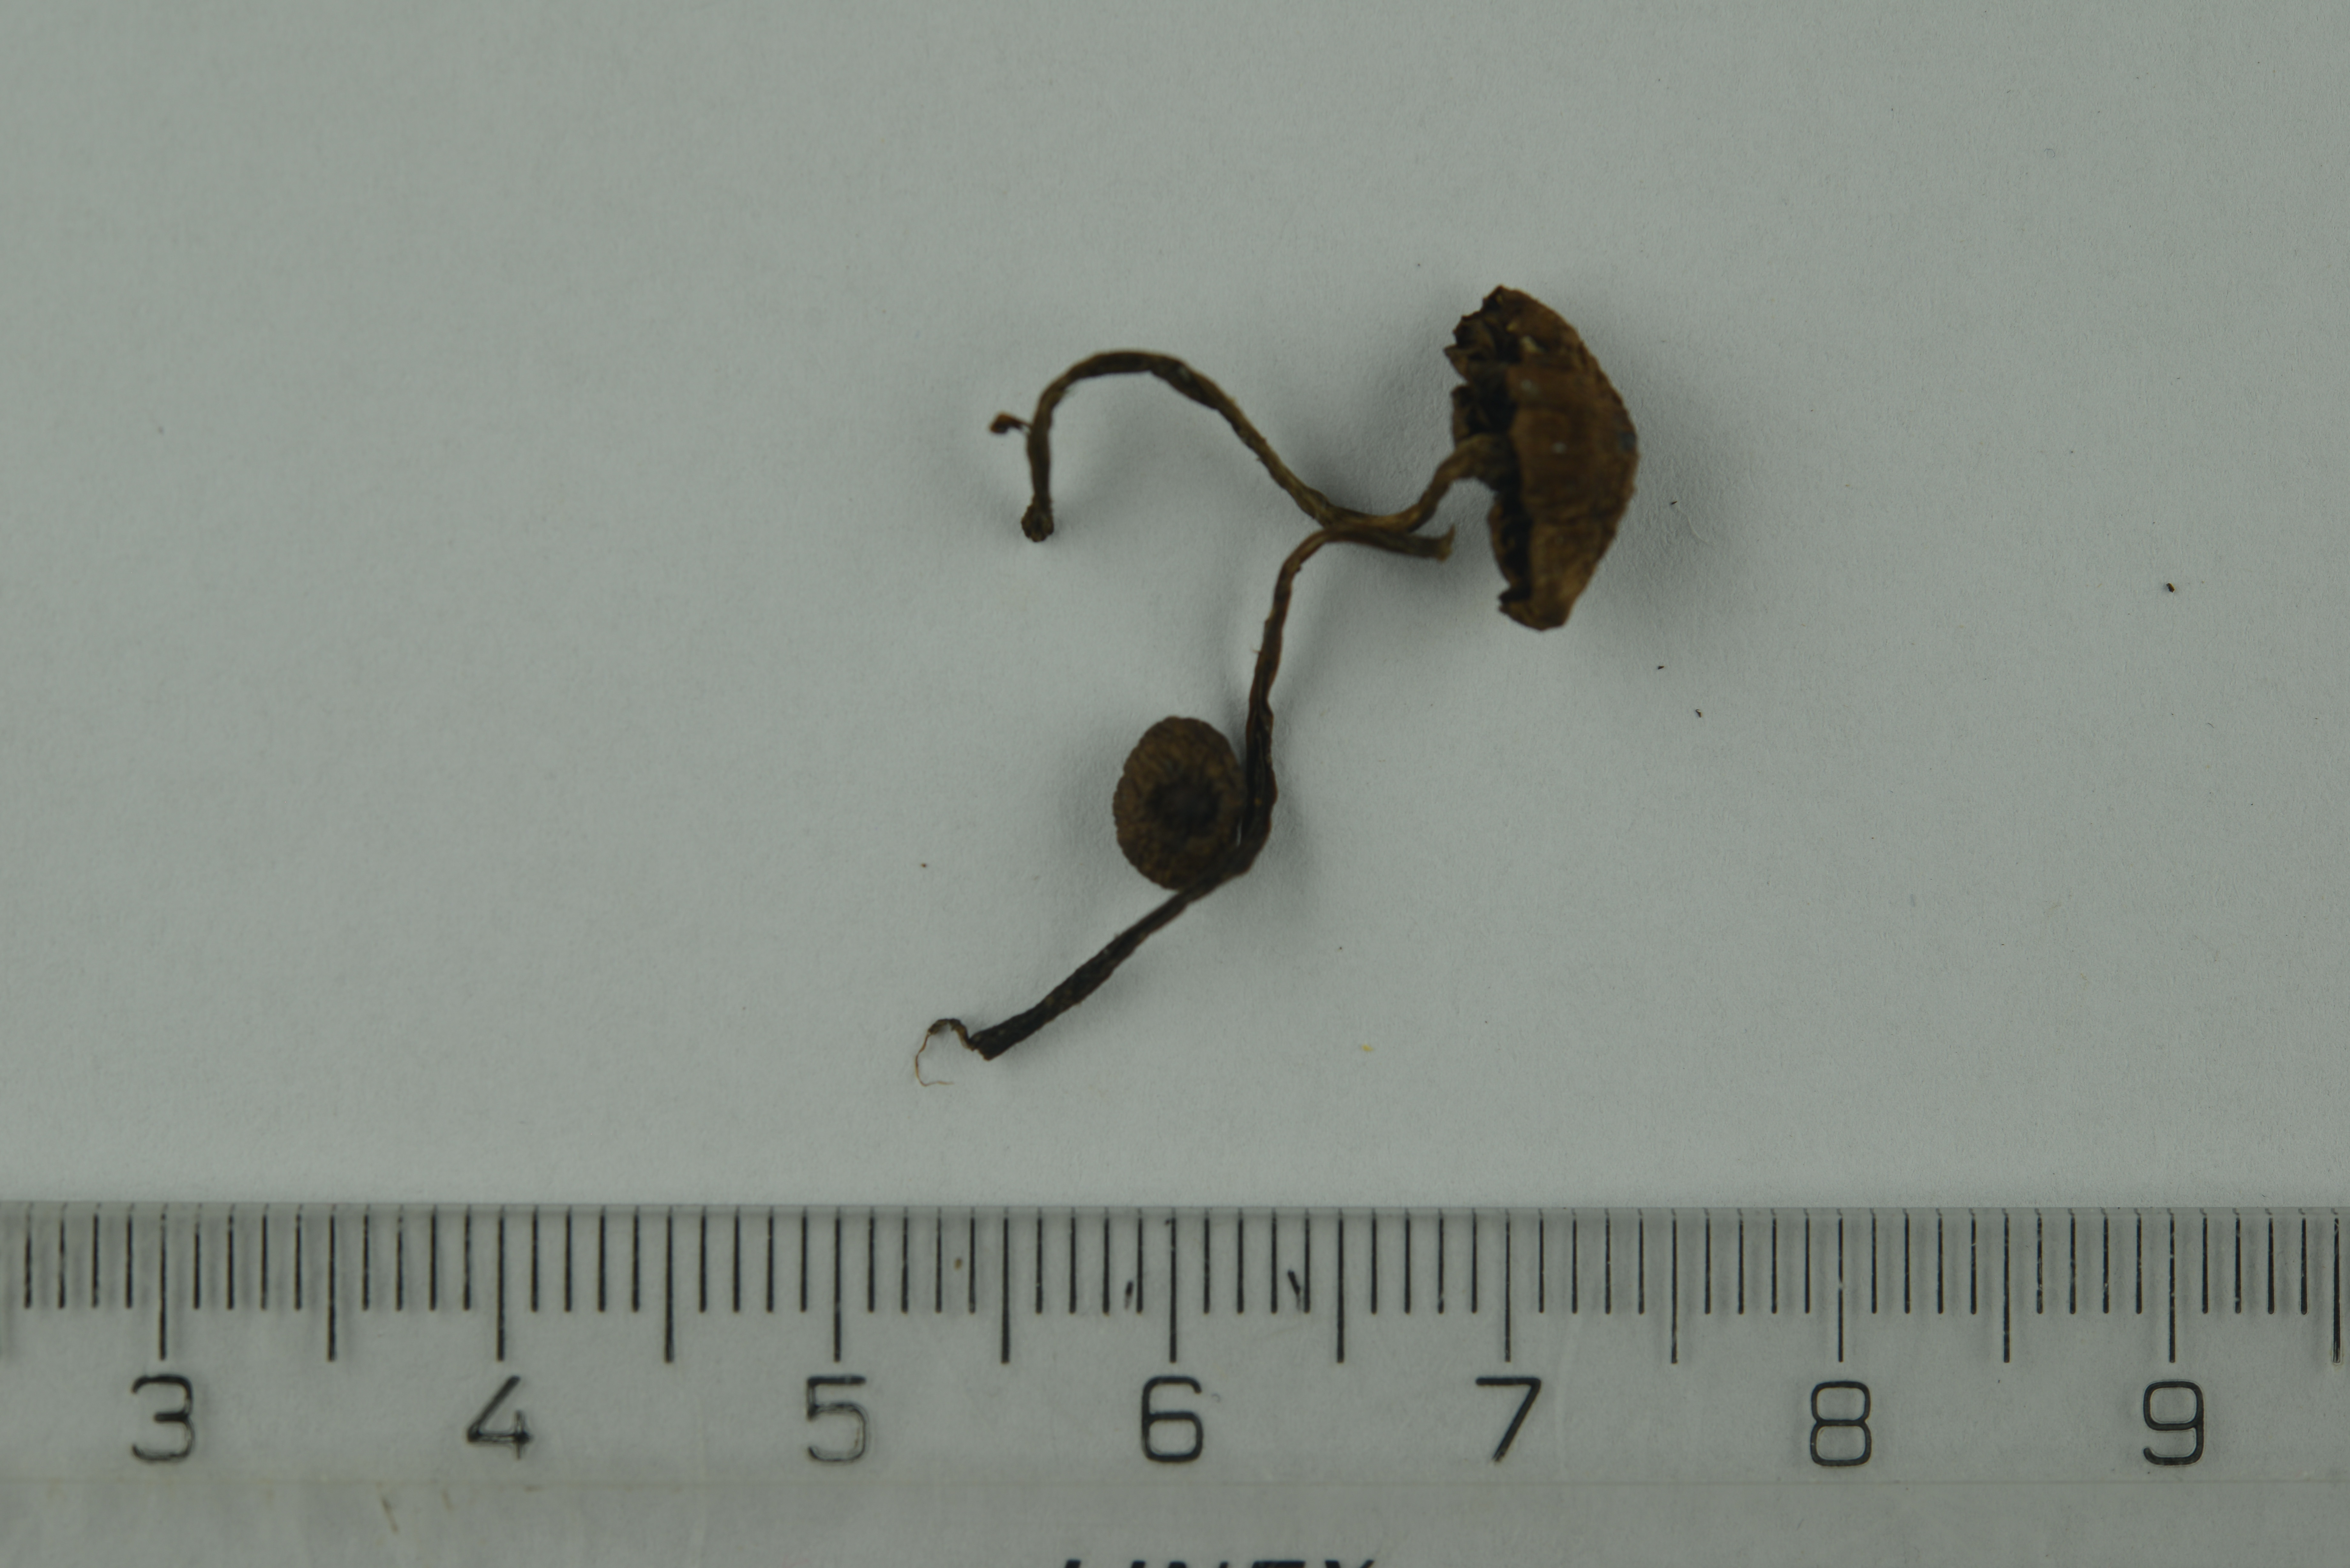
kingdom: Fungi
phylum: Basidiomycota
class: Agaricomycetes
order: Agaricales
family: Cortinariaceae
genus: Cortinarius
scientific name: Cortinarius
